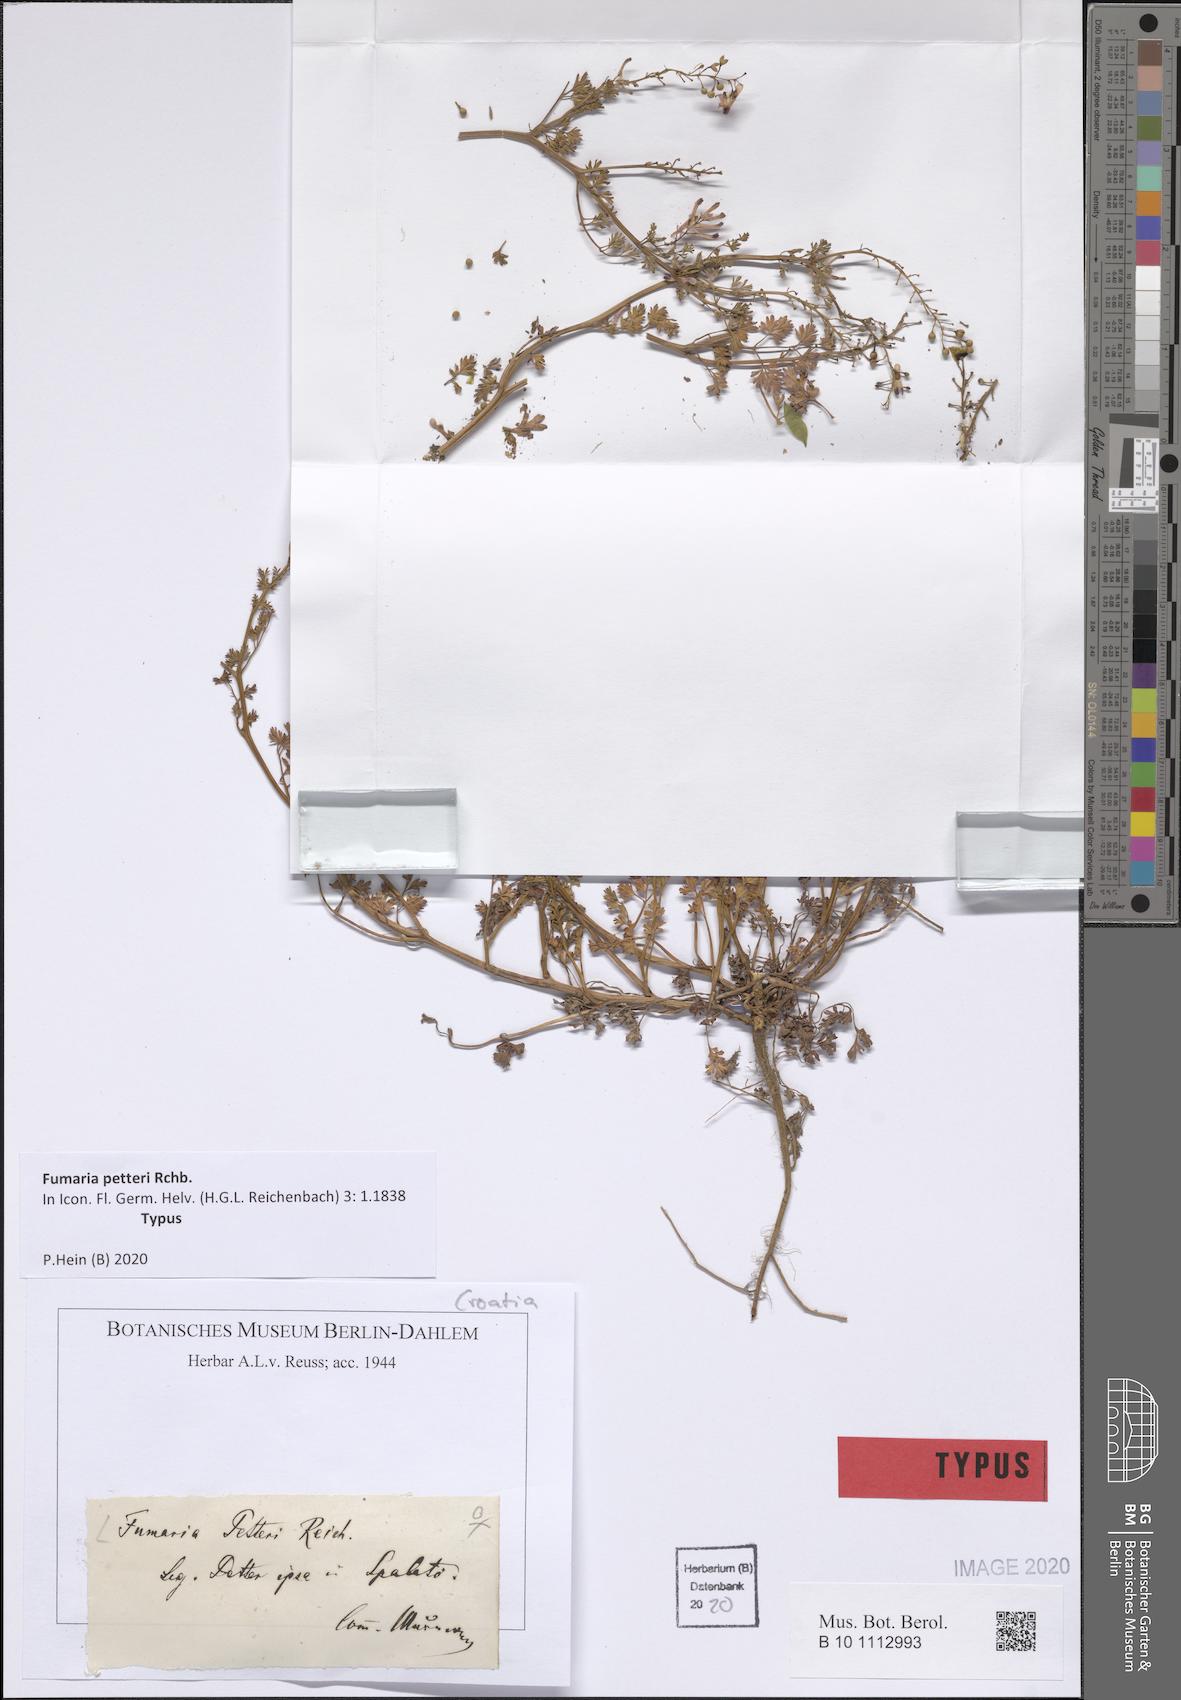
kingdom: Plantae
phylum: Tracheophyta
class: Magnoliopsida
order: Ranunculales
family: Papaveraceae
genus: Fumaria
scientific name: Fumaria petteri
